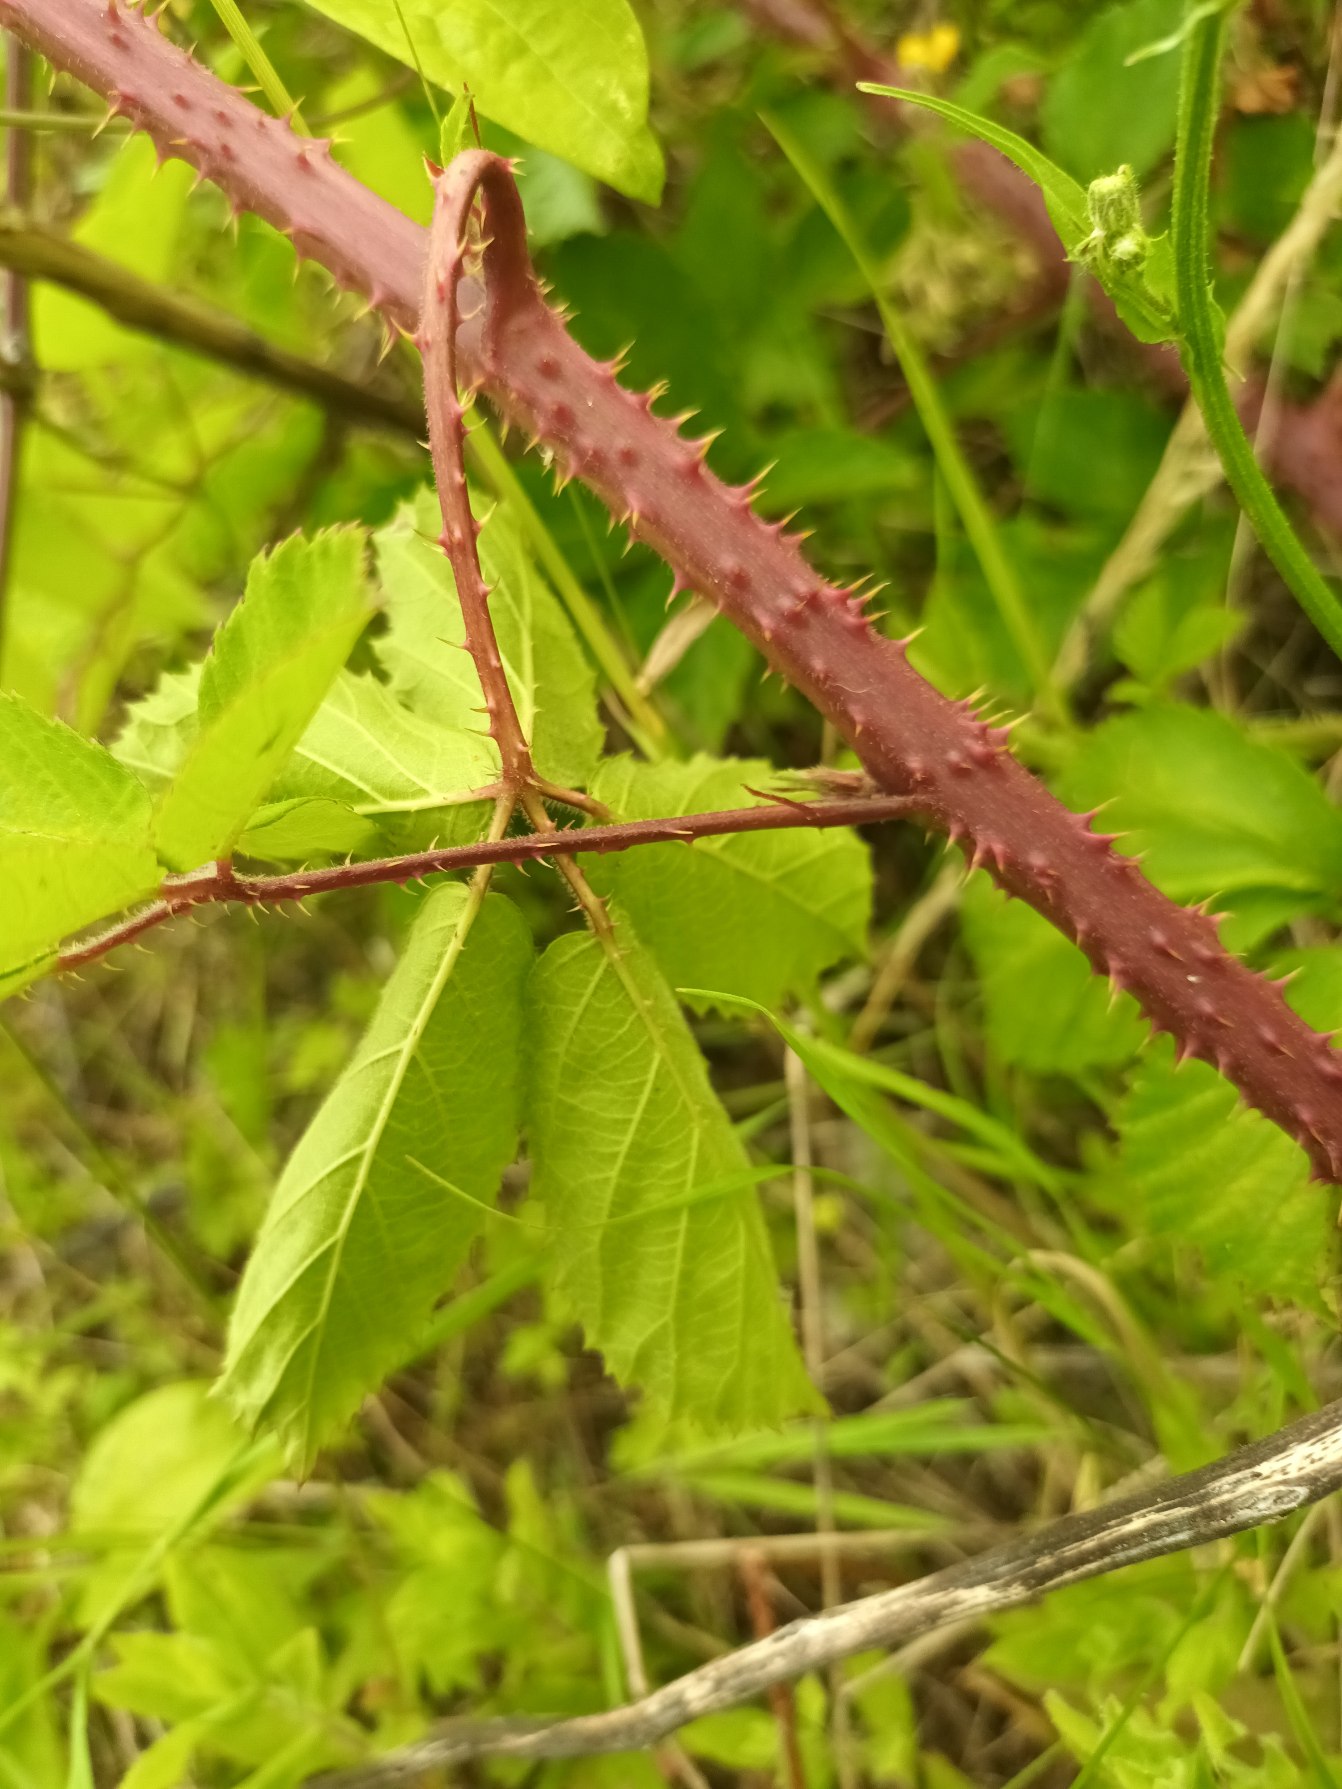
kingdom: Plantae
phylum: Tracheophyta
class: Magnoliopsida
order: Rosales
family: Rosaceae
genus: Rubus
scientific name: Rubus silvaticus
